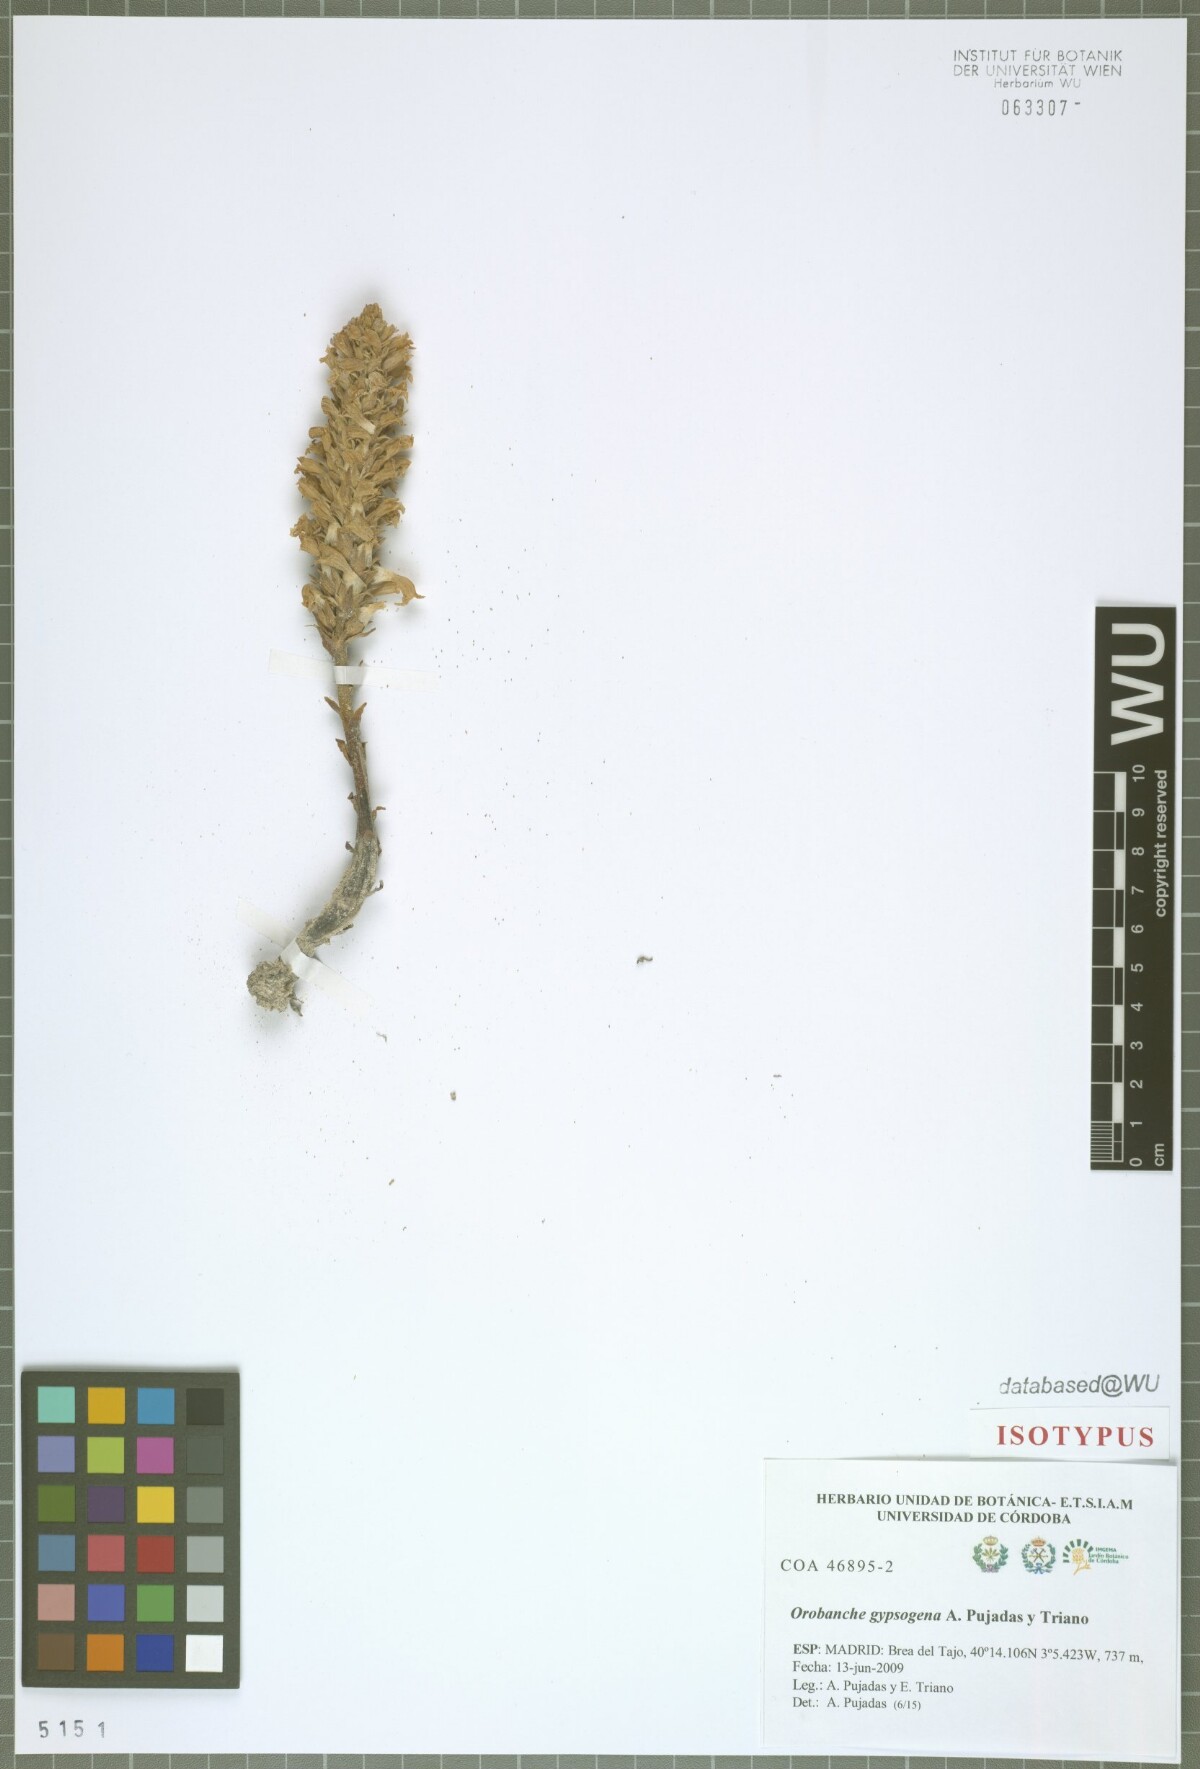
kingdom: Plantae
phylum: Tracheophyta
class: Magnoliopsida
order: Lamiales
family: Orobanchaceae
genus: Phelipanche
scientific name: Phelipanche portoilicitana
